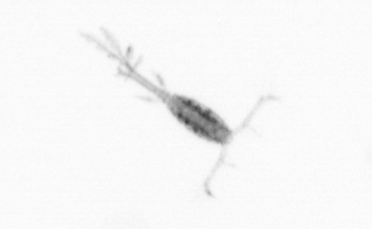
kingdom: Animalia
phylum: Arthropoda
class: Copepoda
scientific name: Copepoda
